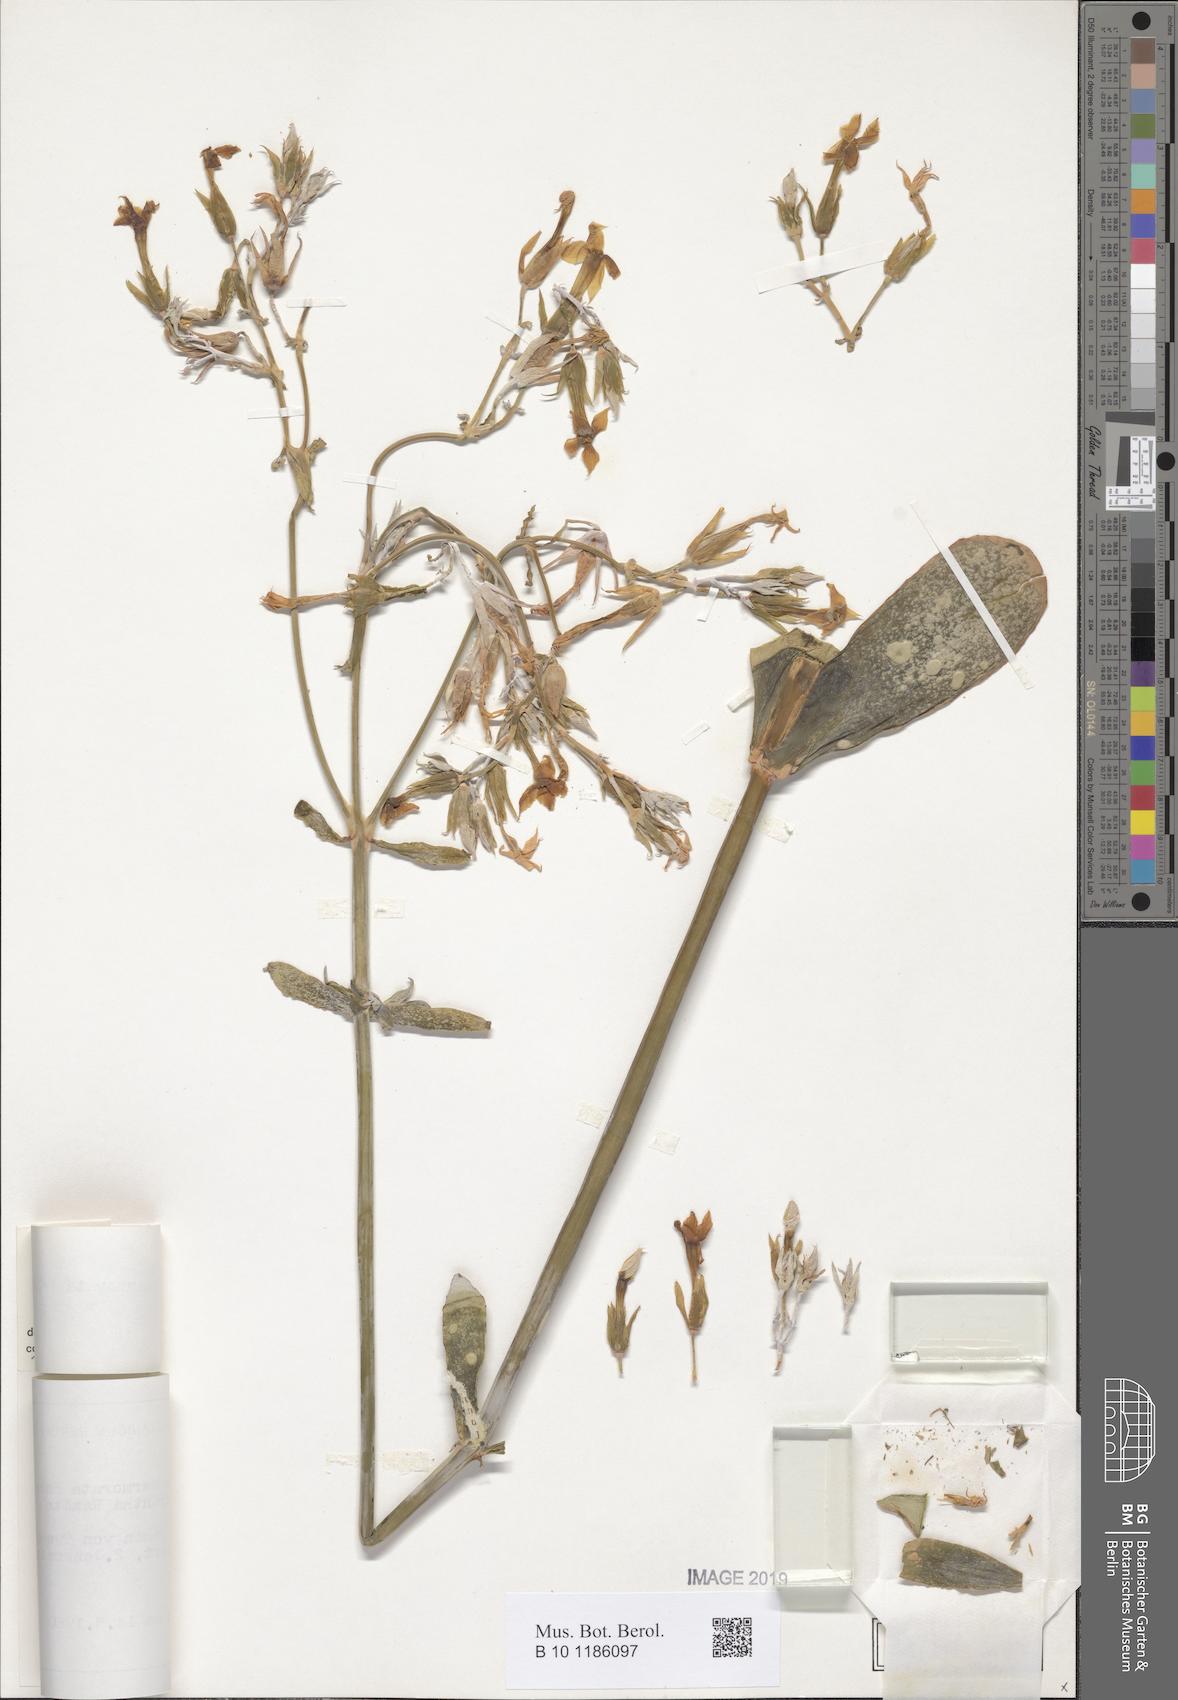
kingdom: Plantae
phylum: Tracheophyta
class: Magnoliopsida
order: Saxifragales
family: Crassulaceae
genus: Kalanchoe
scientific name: Kalanchoe marmorata
